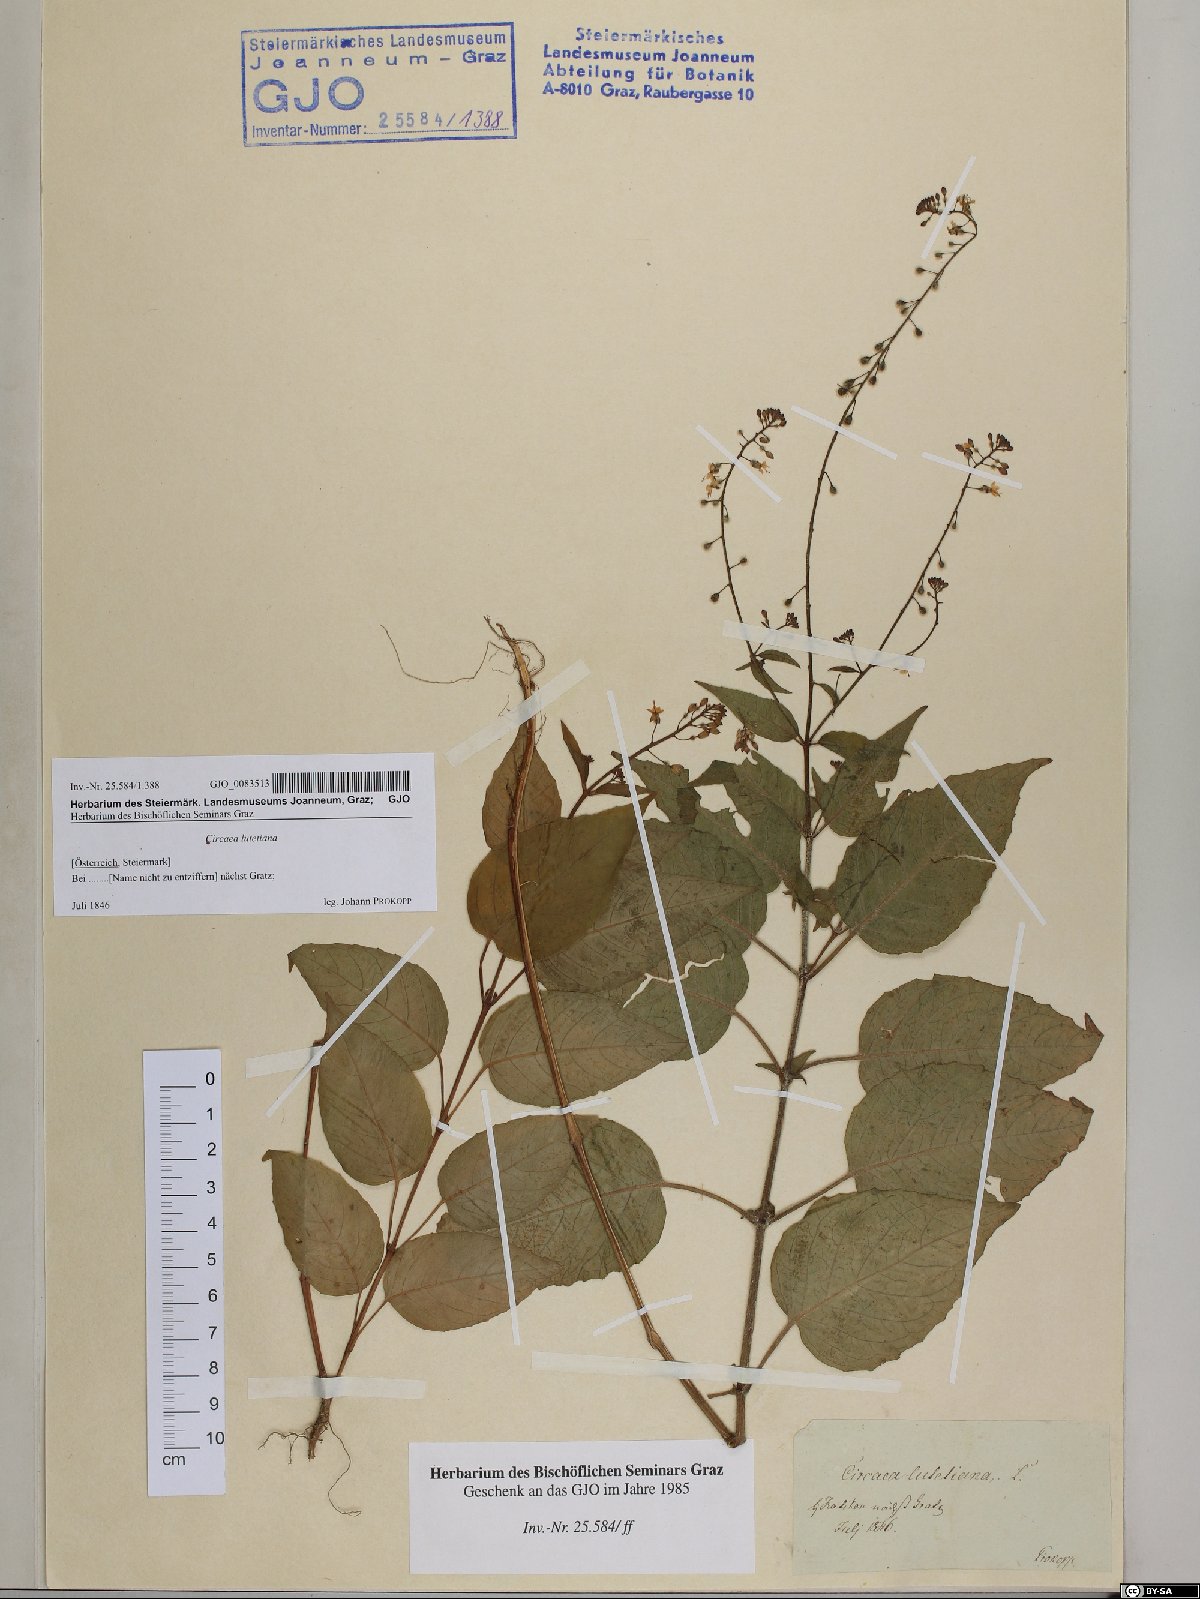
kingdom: Plantae
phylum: Tracheophyta
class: Magnoliopsida
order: Myrtales
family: Onagraceae
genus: Circaea
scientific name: Circaea lutetiana
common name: Enchanter's-nightshade
